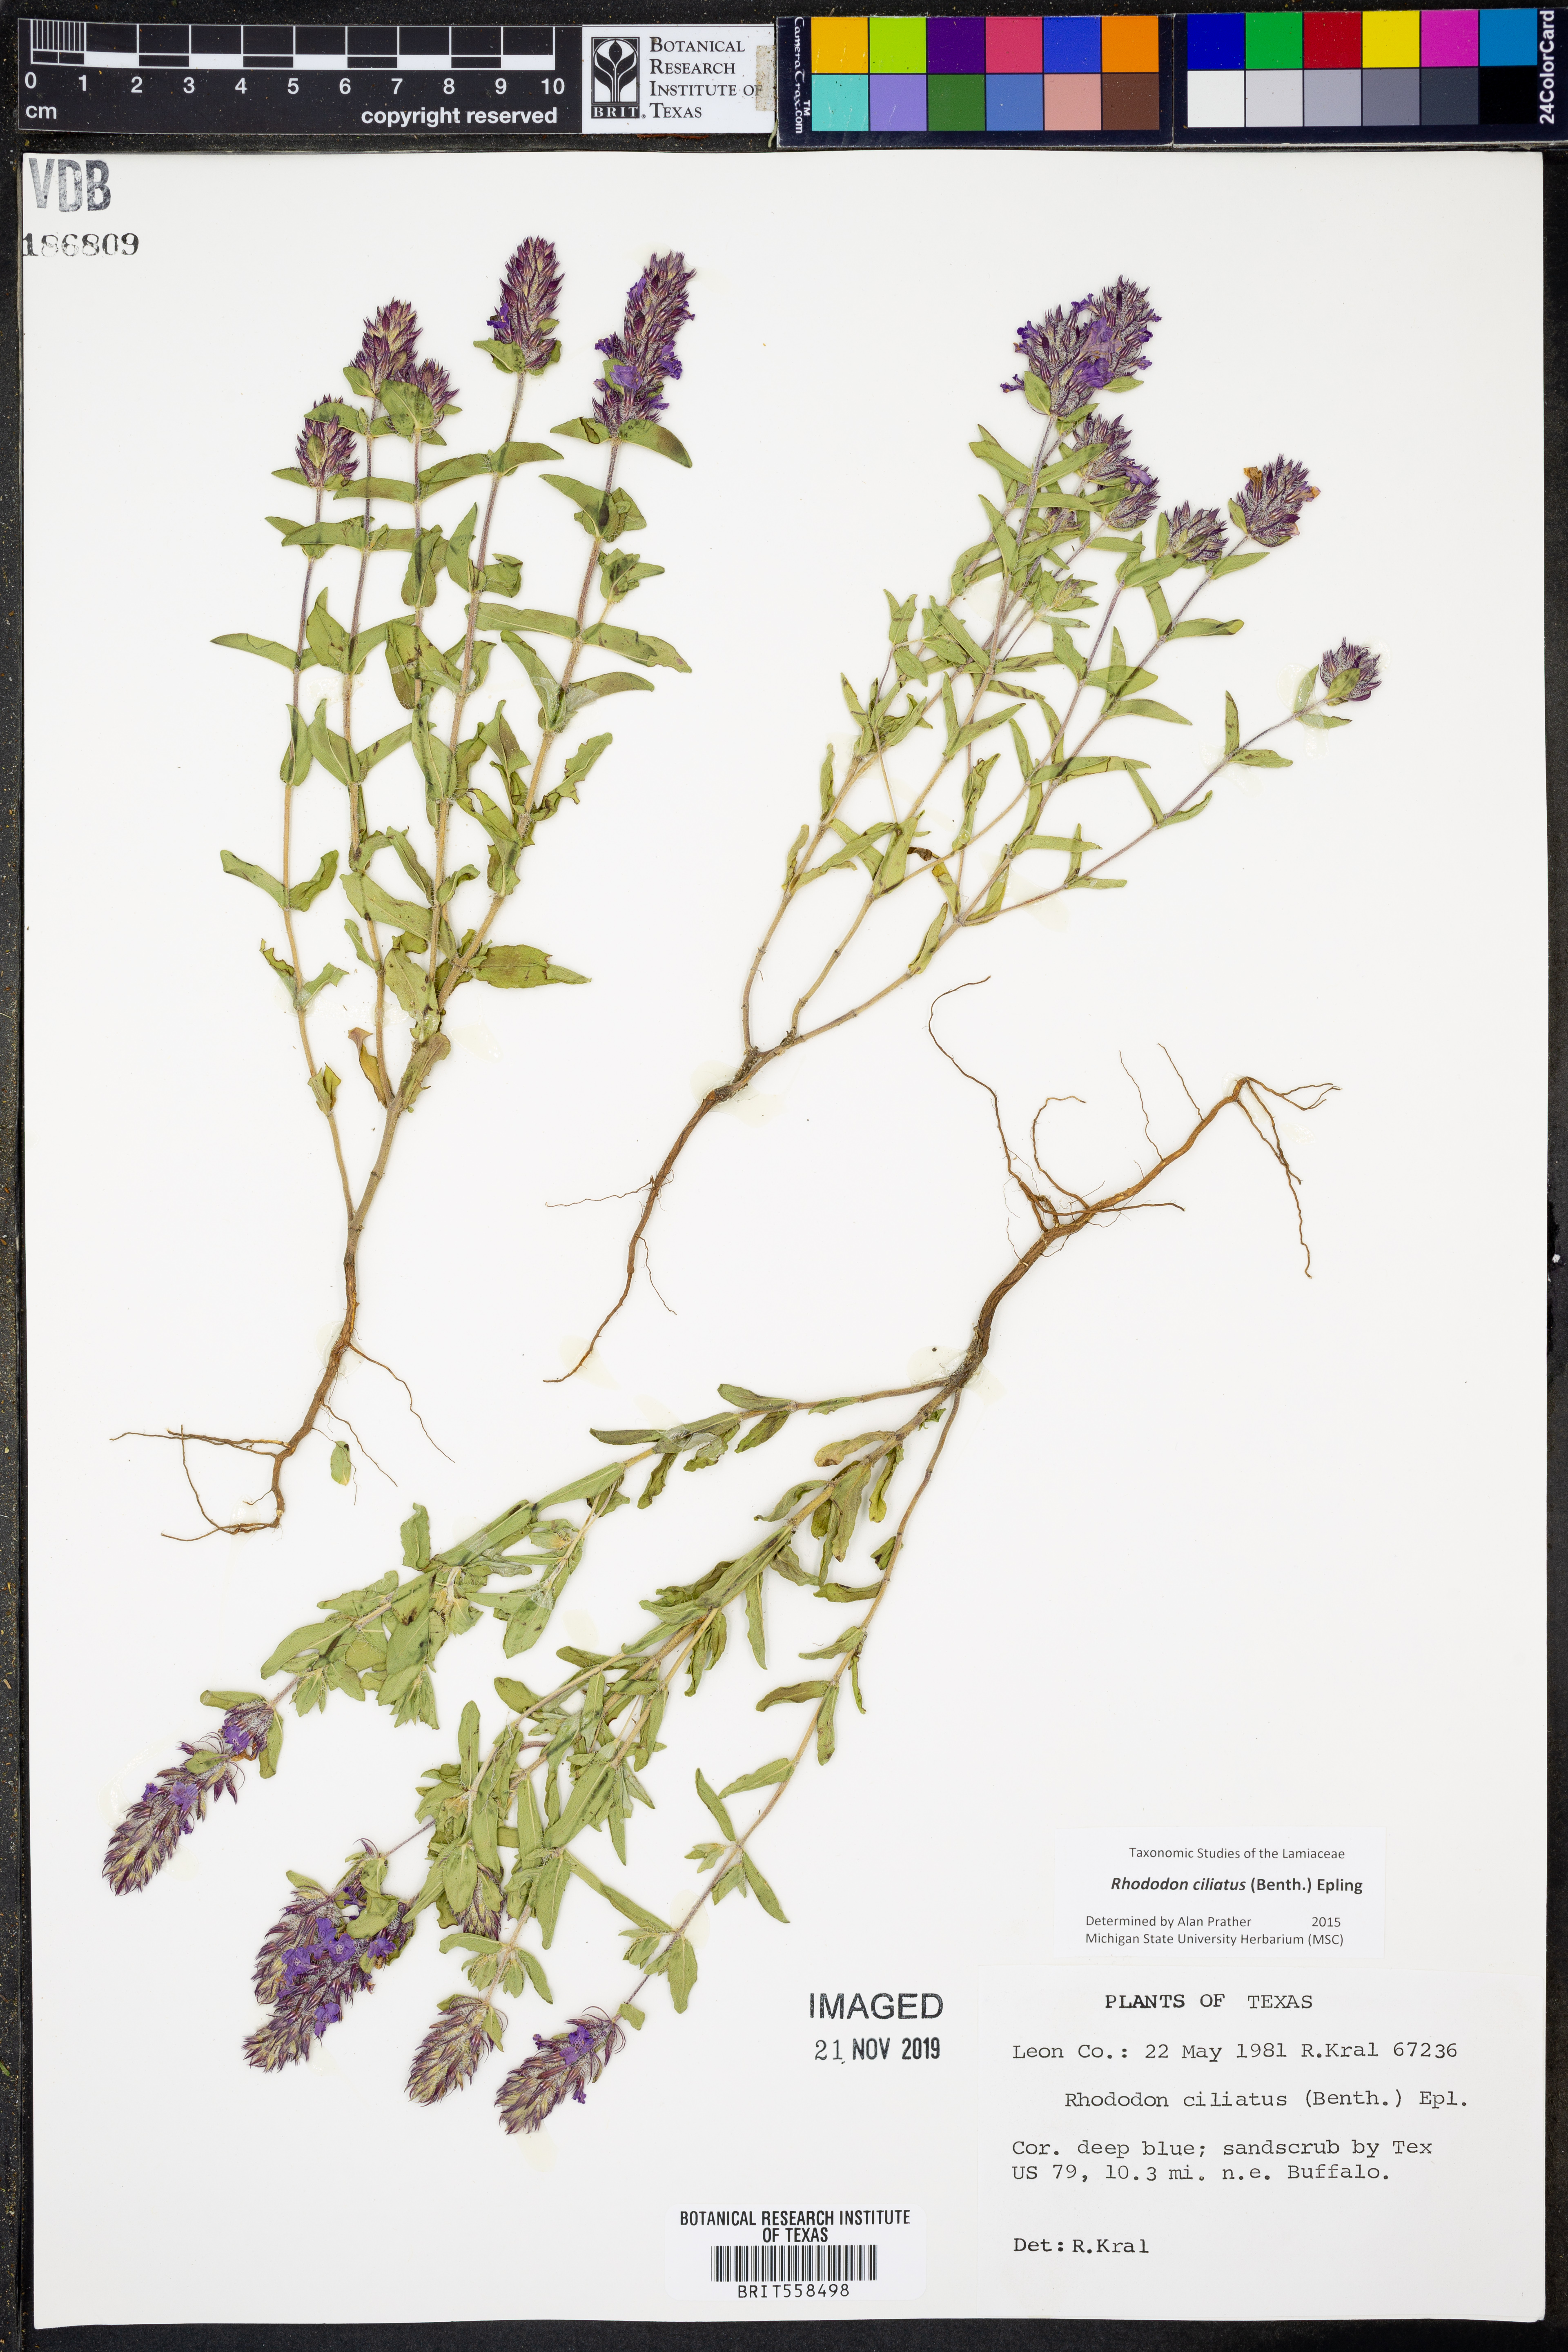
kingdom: Plantae
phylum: Tracheophyta
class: Magnoliopsida
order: Lamiales
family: Lamiaceae
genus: Rhododon
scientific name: Rhododon ciliatus
